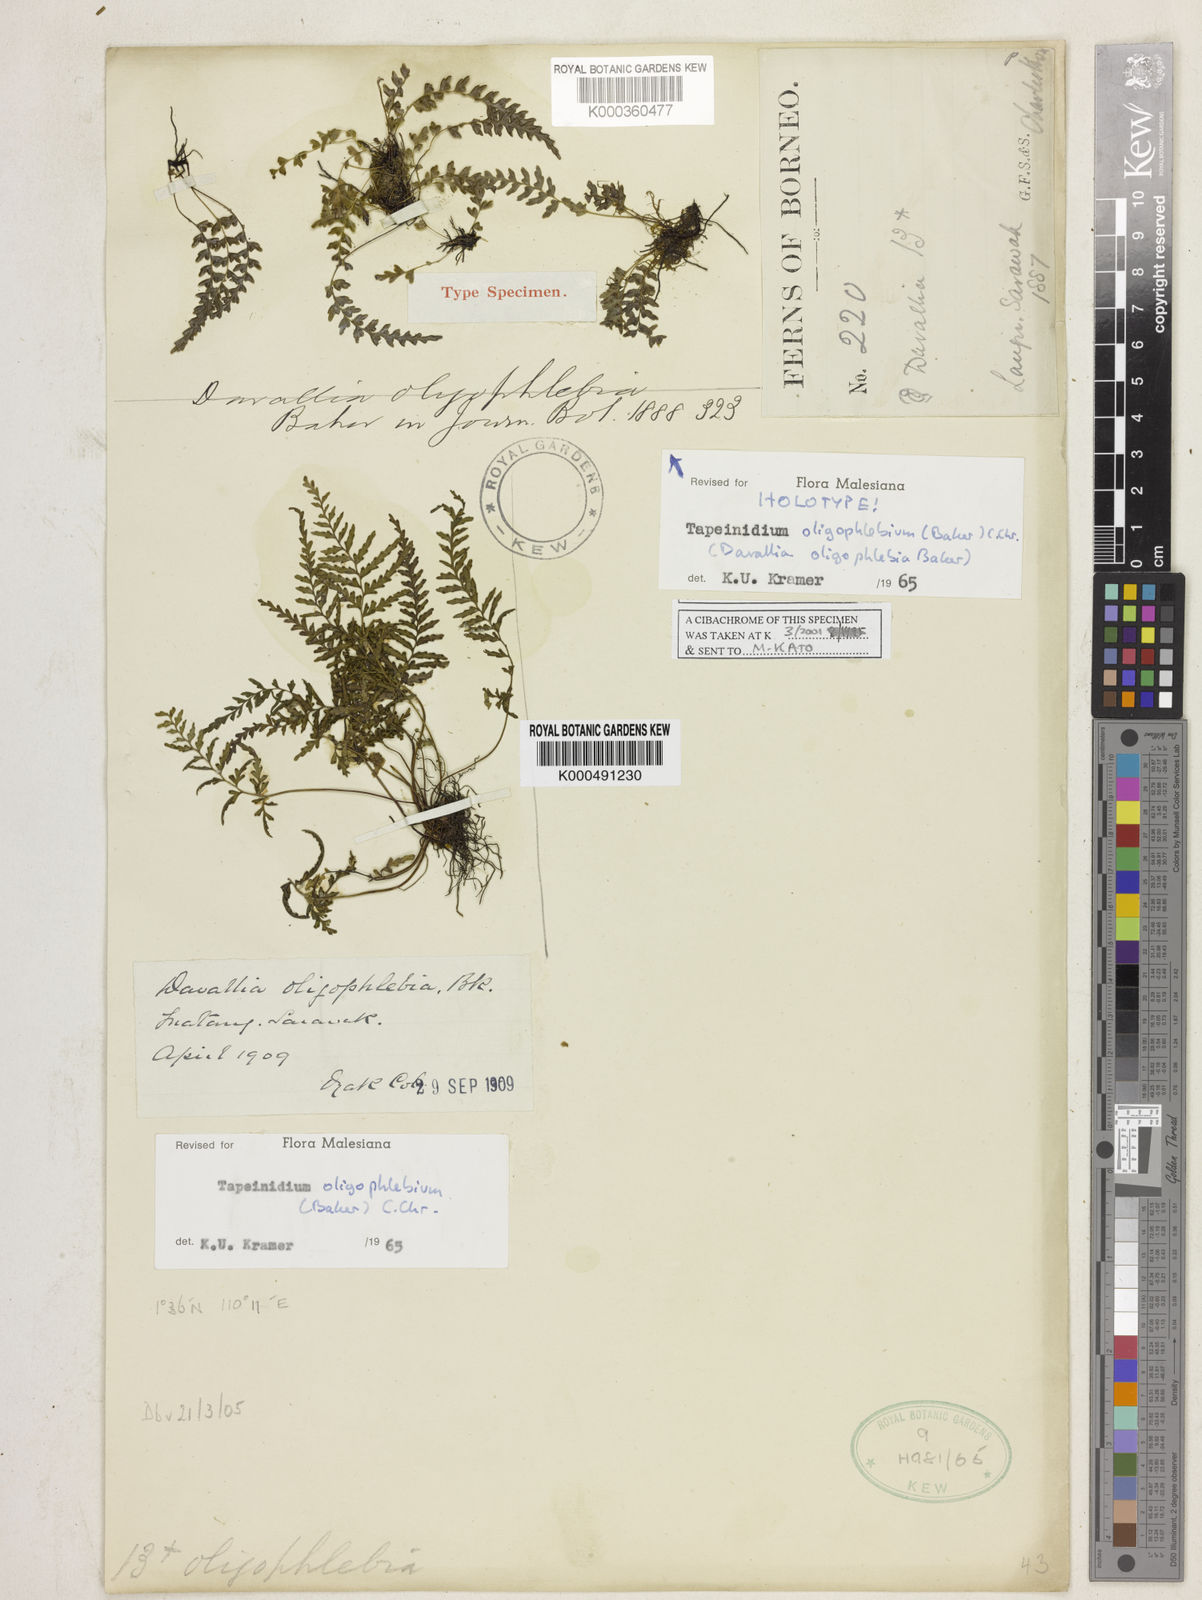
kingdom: Plantae
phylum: Tracheophyta
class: Polypodiopsida
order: Polypodiales
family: Lindsaeaceae
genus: Tapeinidium
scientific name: Tapeinidium oligophlebium
